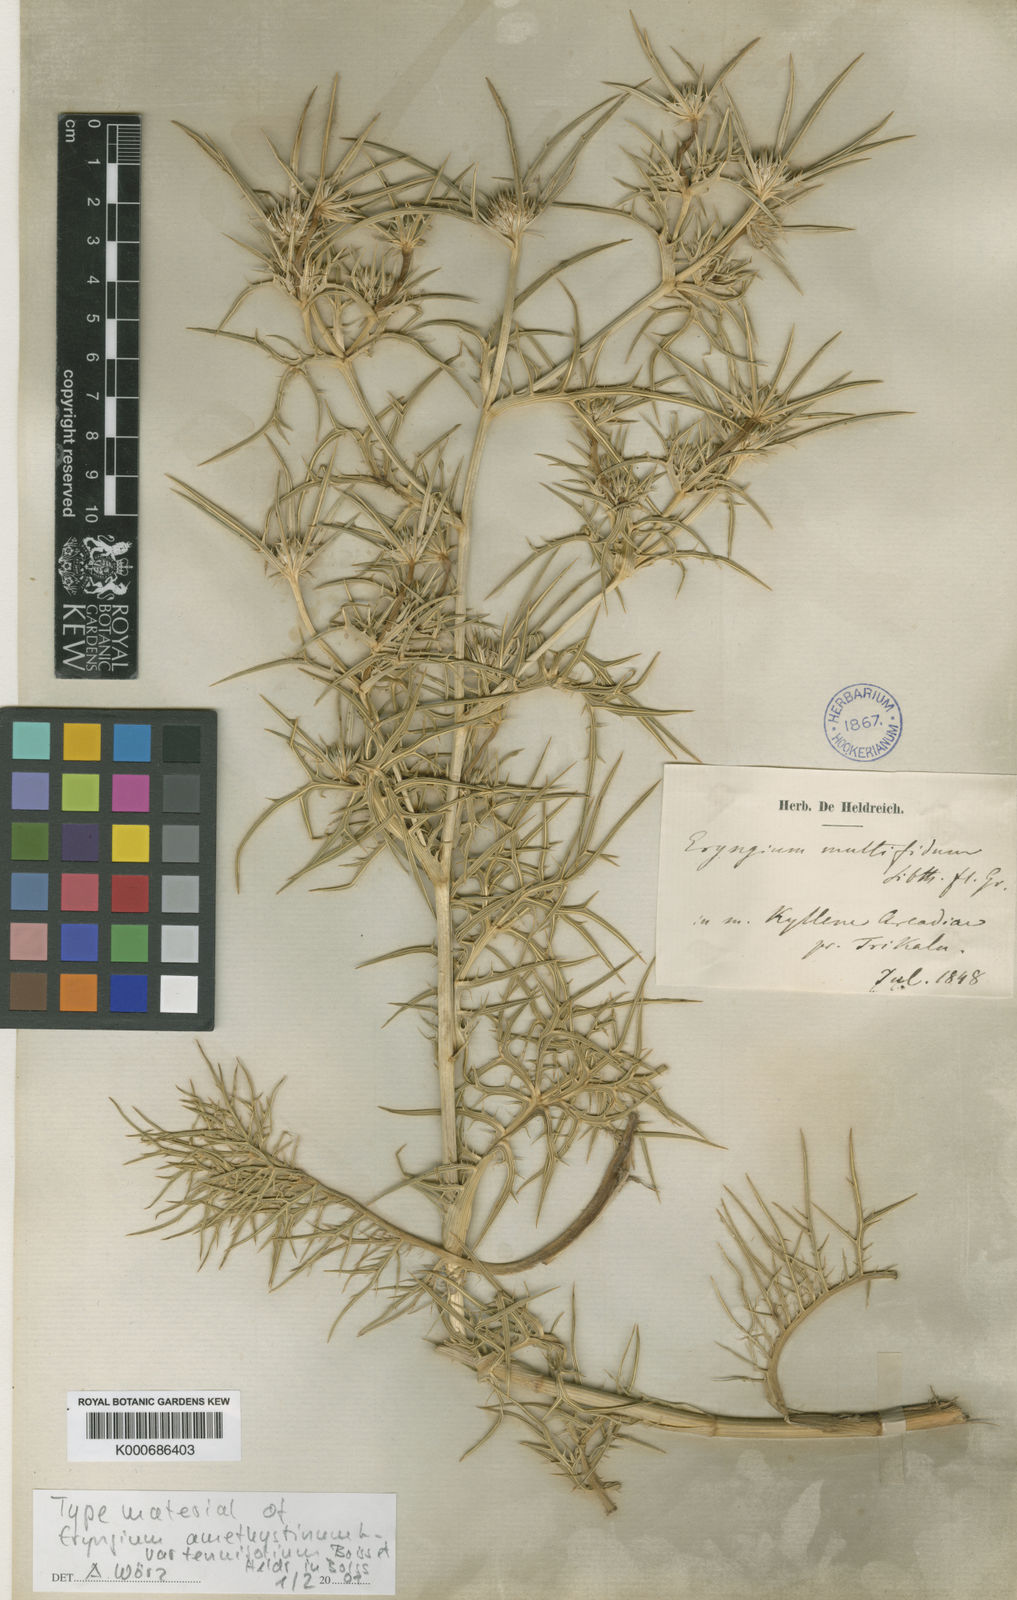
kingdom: Plantae
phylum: Tracheophyta
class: Magnoliopsida
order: Apiales
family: Apiaceae
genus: Eryngium
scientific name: Eryngium amethystinum
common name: Amethyst eryngo
